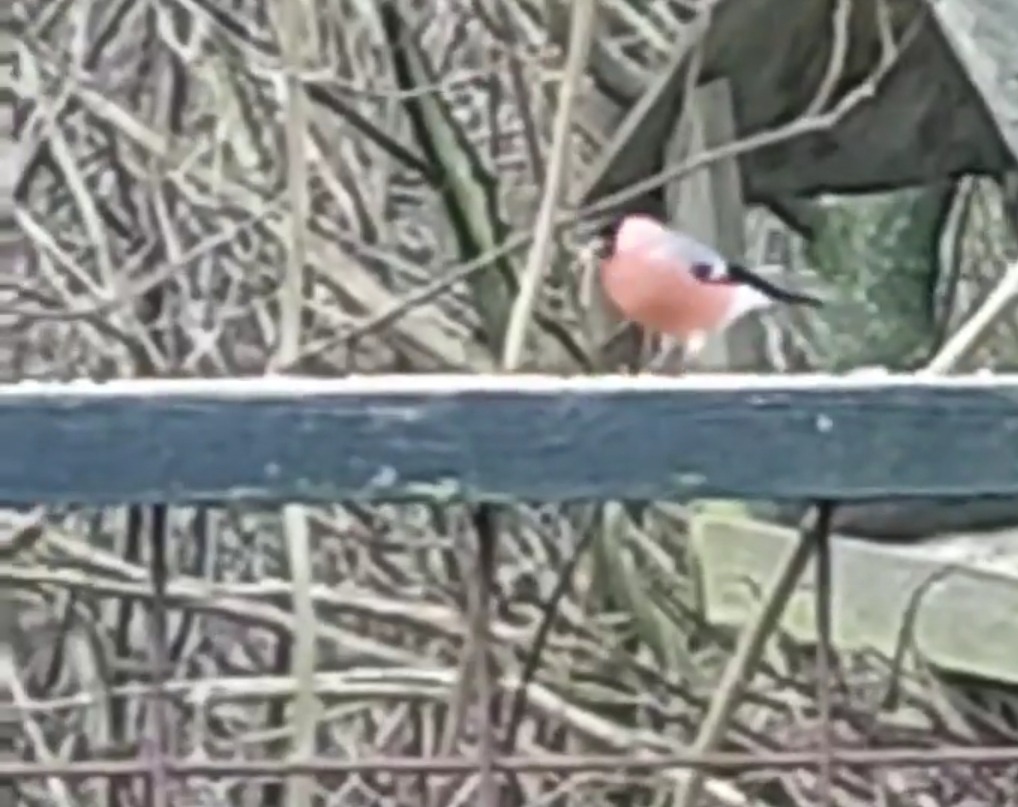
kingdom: Animalia
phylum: Chordata
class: Aves
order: Passeriformes
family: Fringillidae
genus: Pyrrhula
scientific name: Pyrrhula pyrrhula
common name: Dompap
